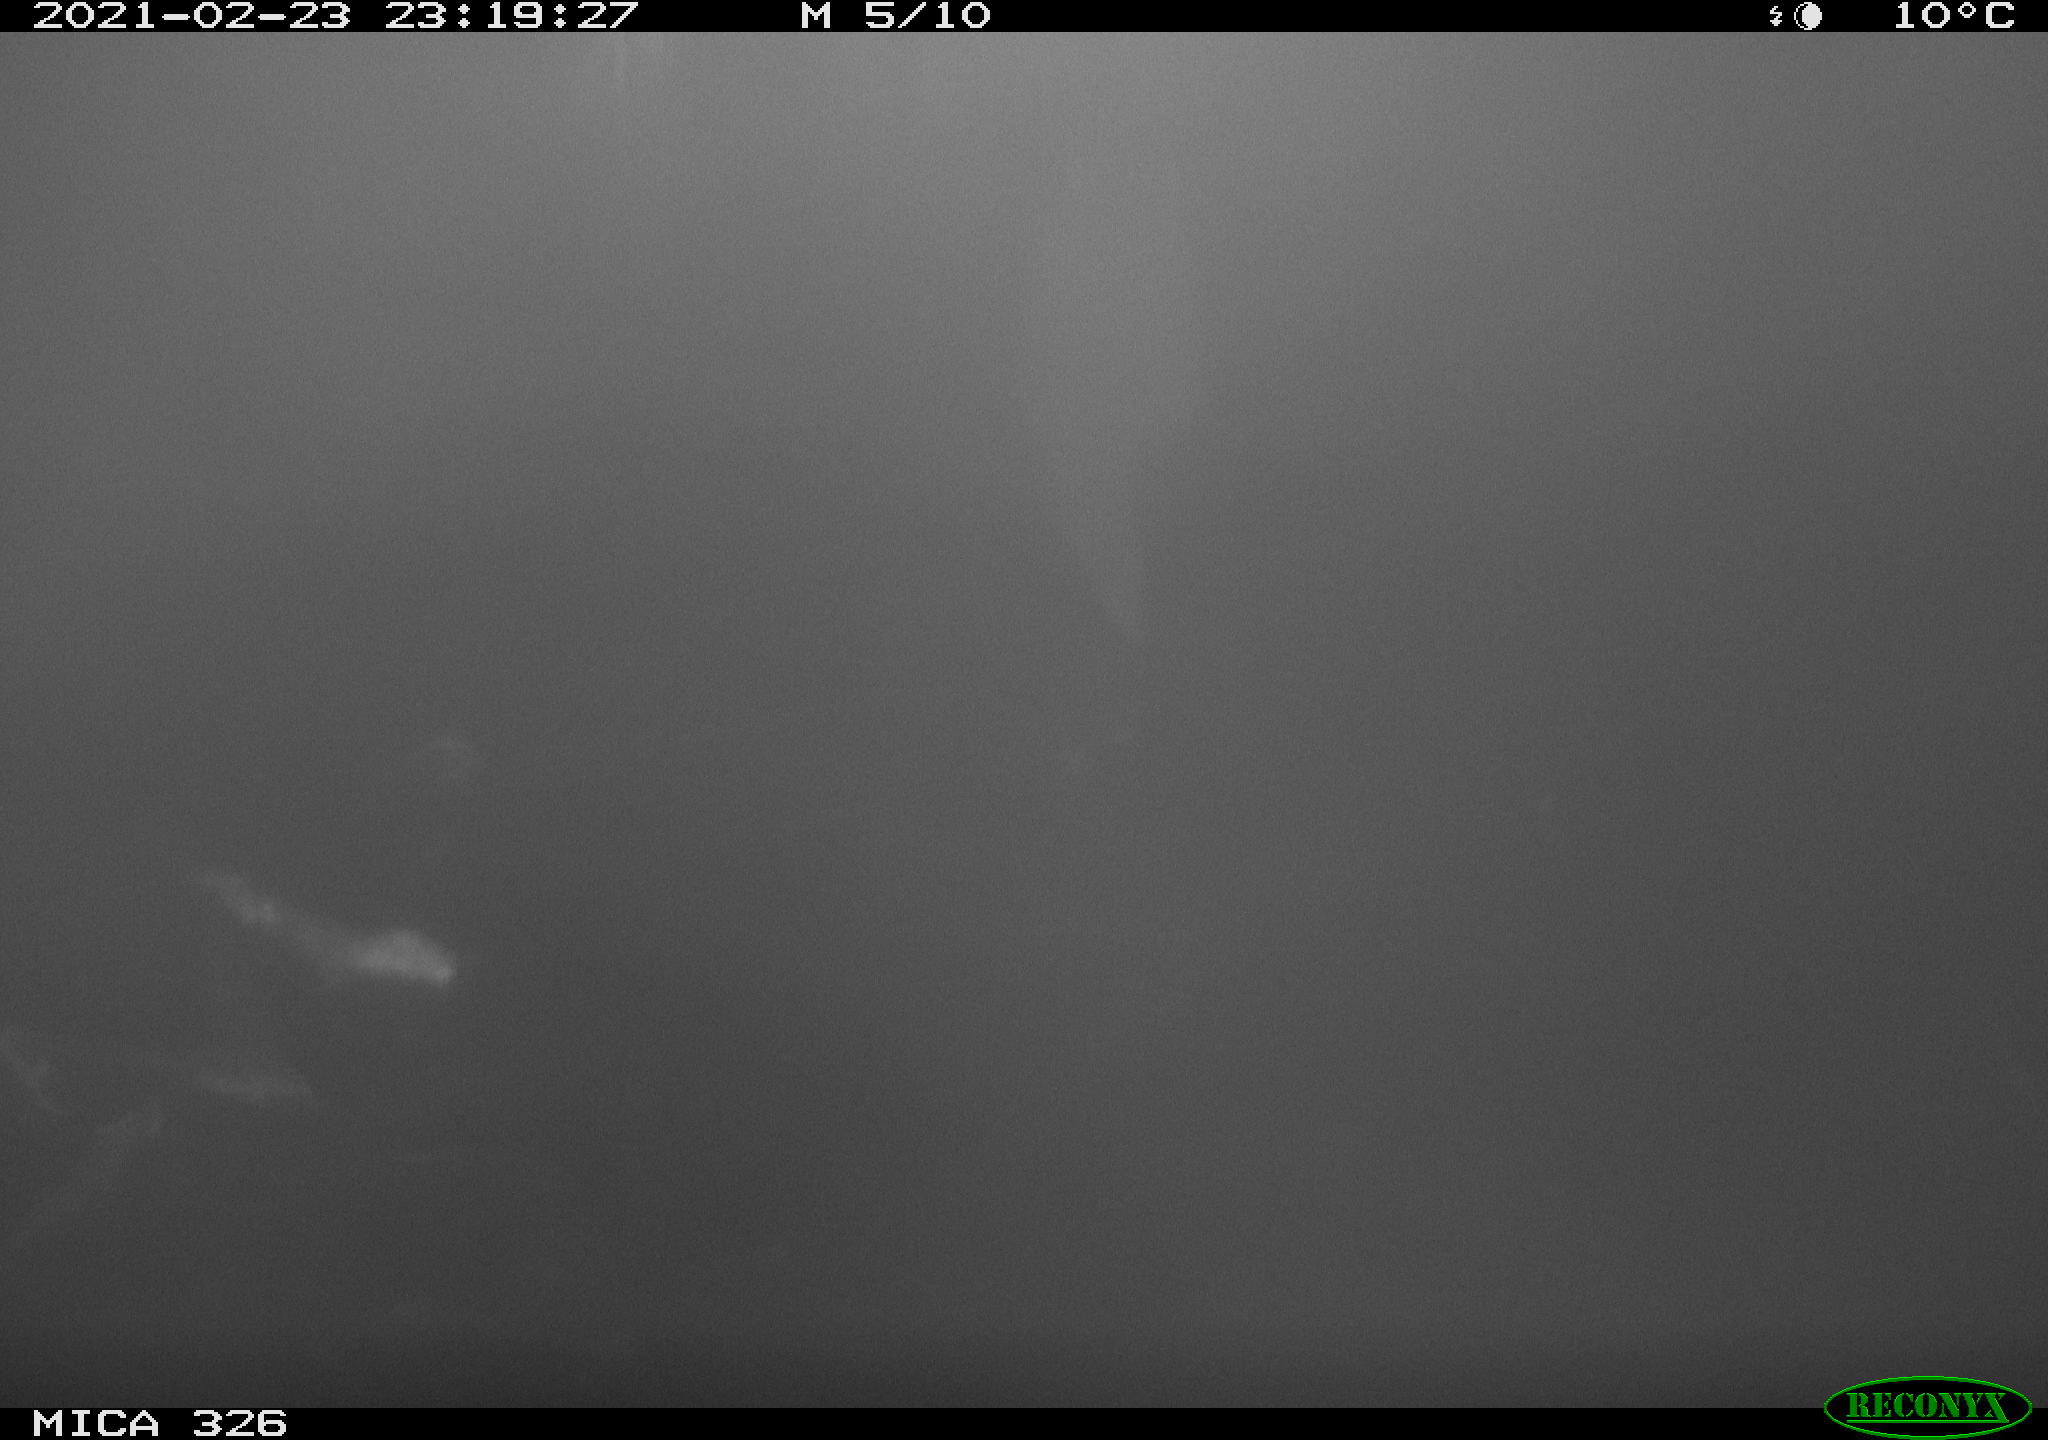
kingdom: Animalia
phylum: Chordata
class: Mammalia
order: Carnivora
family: Mustelidae
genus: Lutra
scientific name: Lutra lutra
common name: European otter
